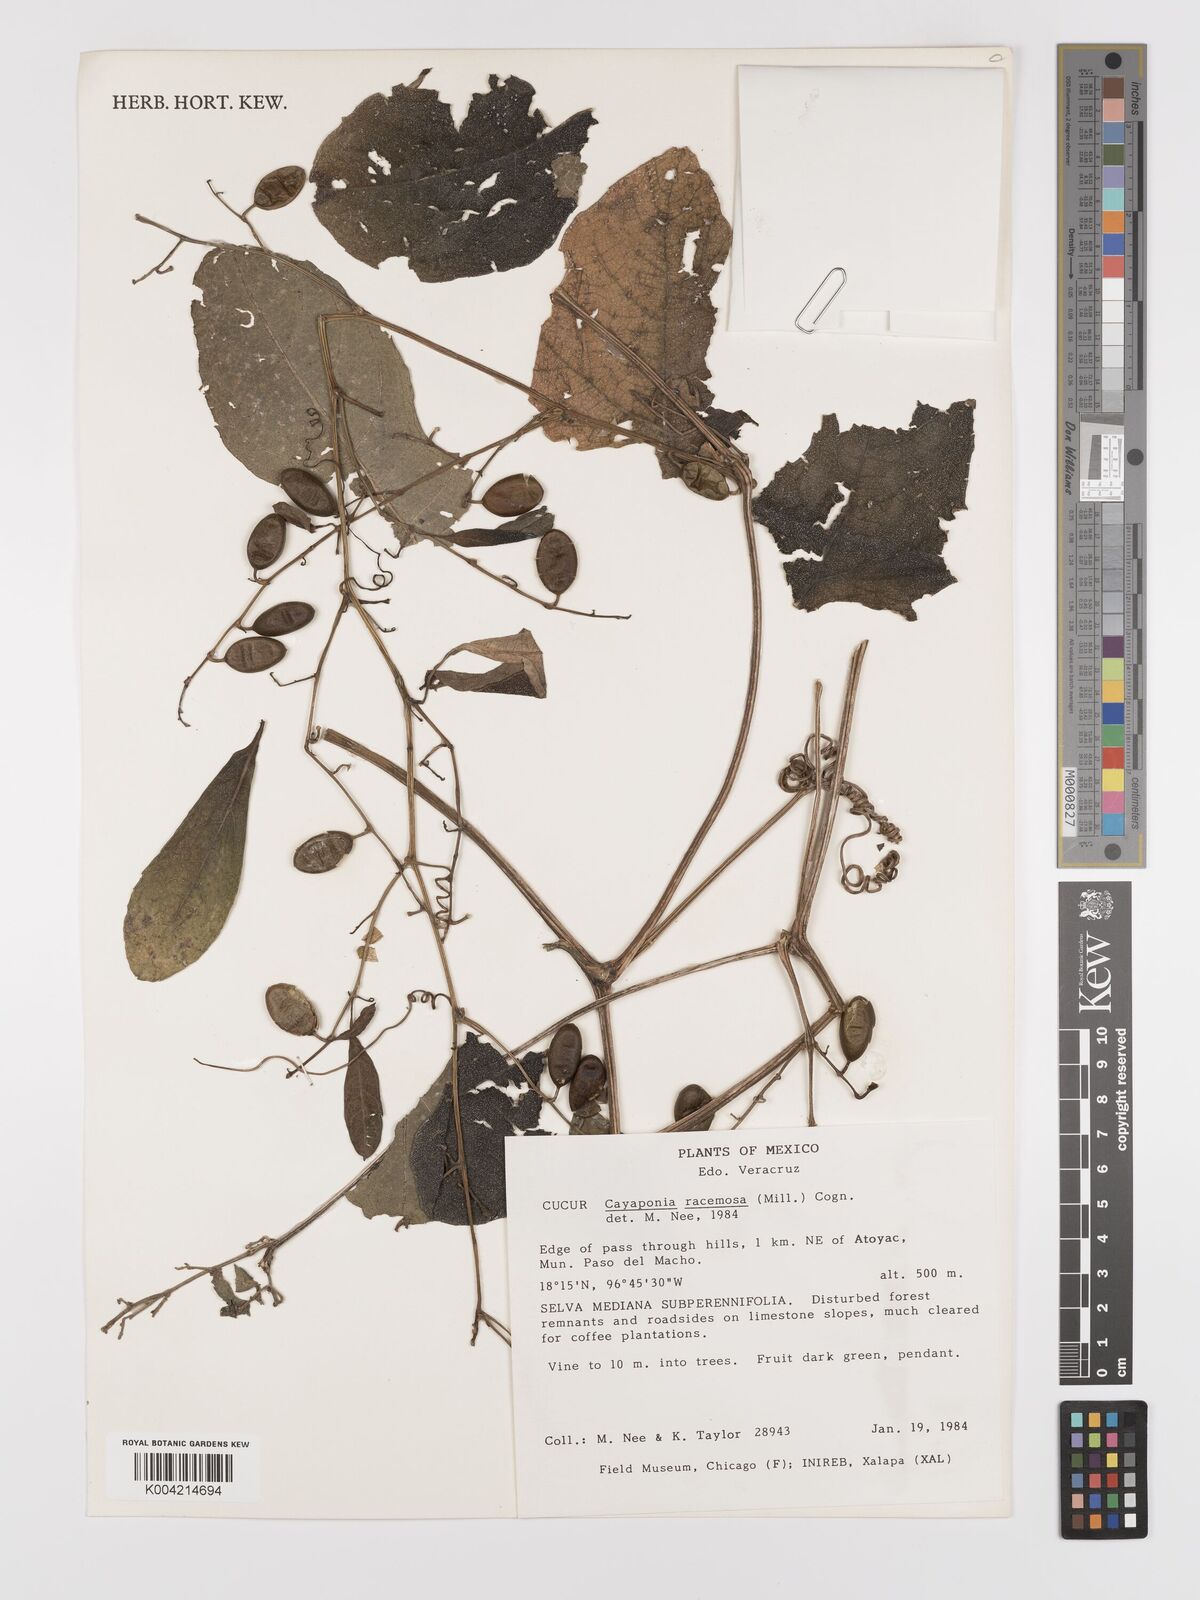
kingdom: Plantae
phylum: Tracheophyta
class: Magnoliopsida
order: Cucurbitales
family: Cucurbitaceae
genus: Cayaponia
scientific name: Cayaponia racemosa
